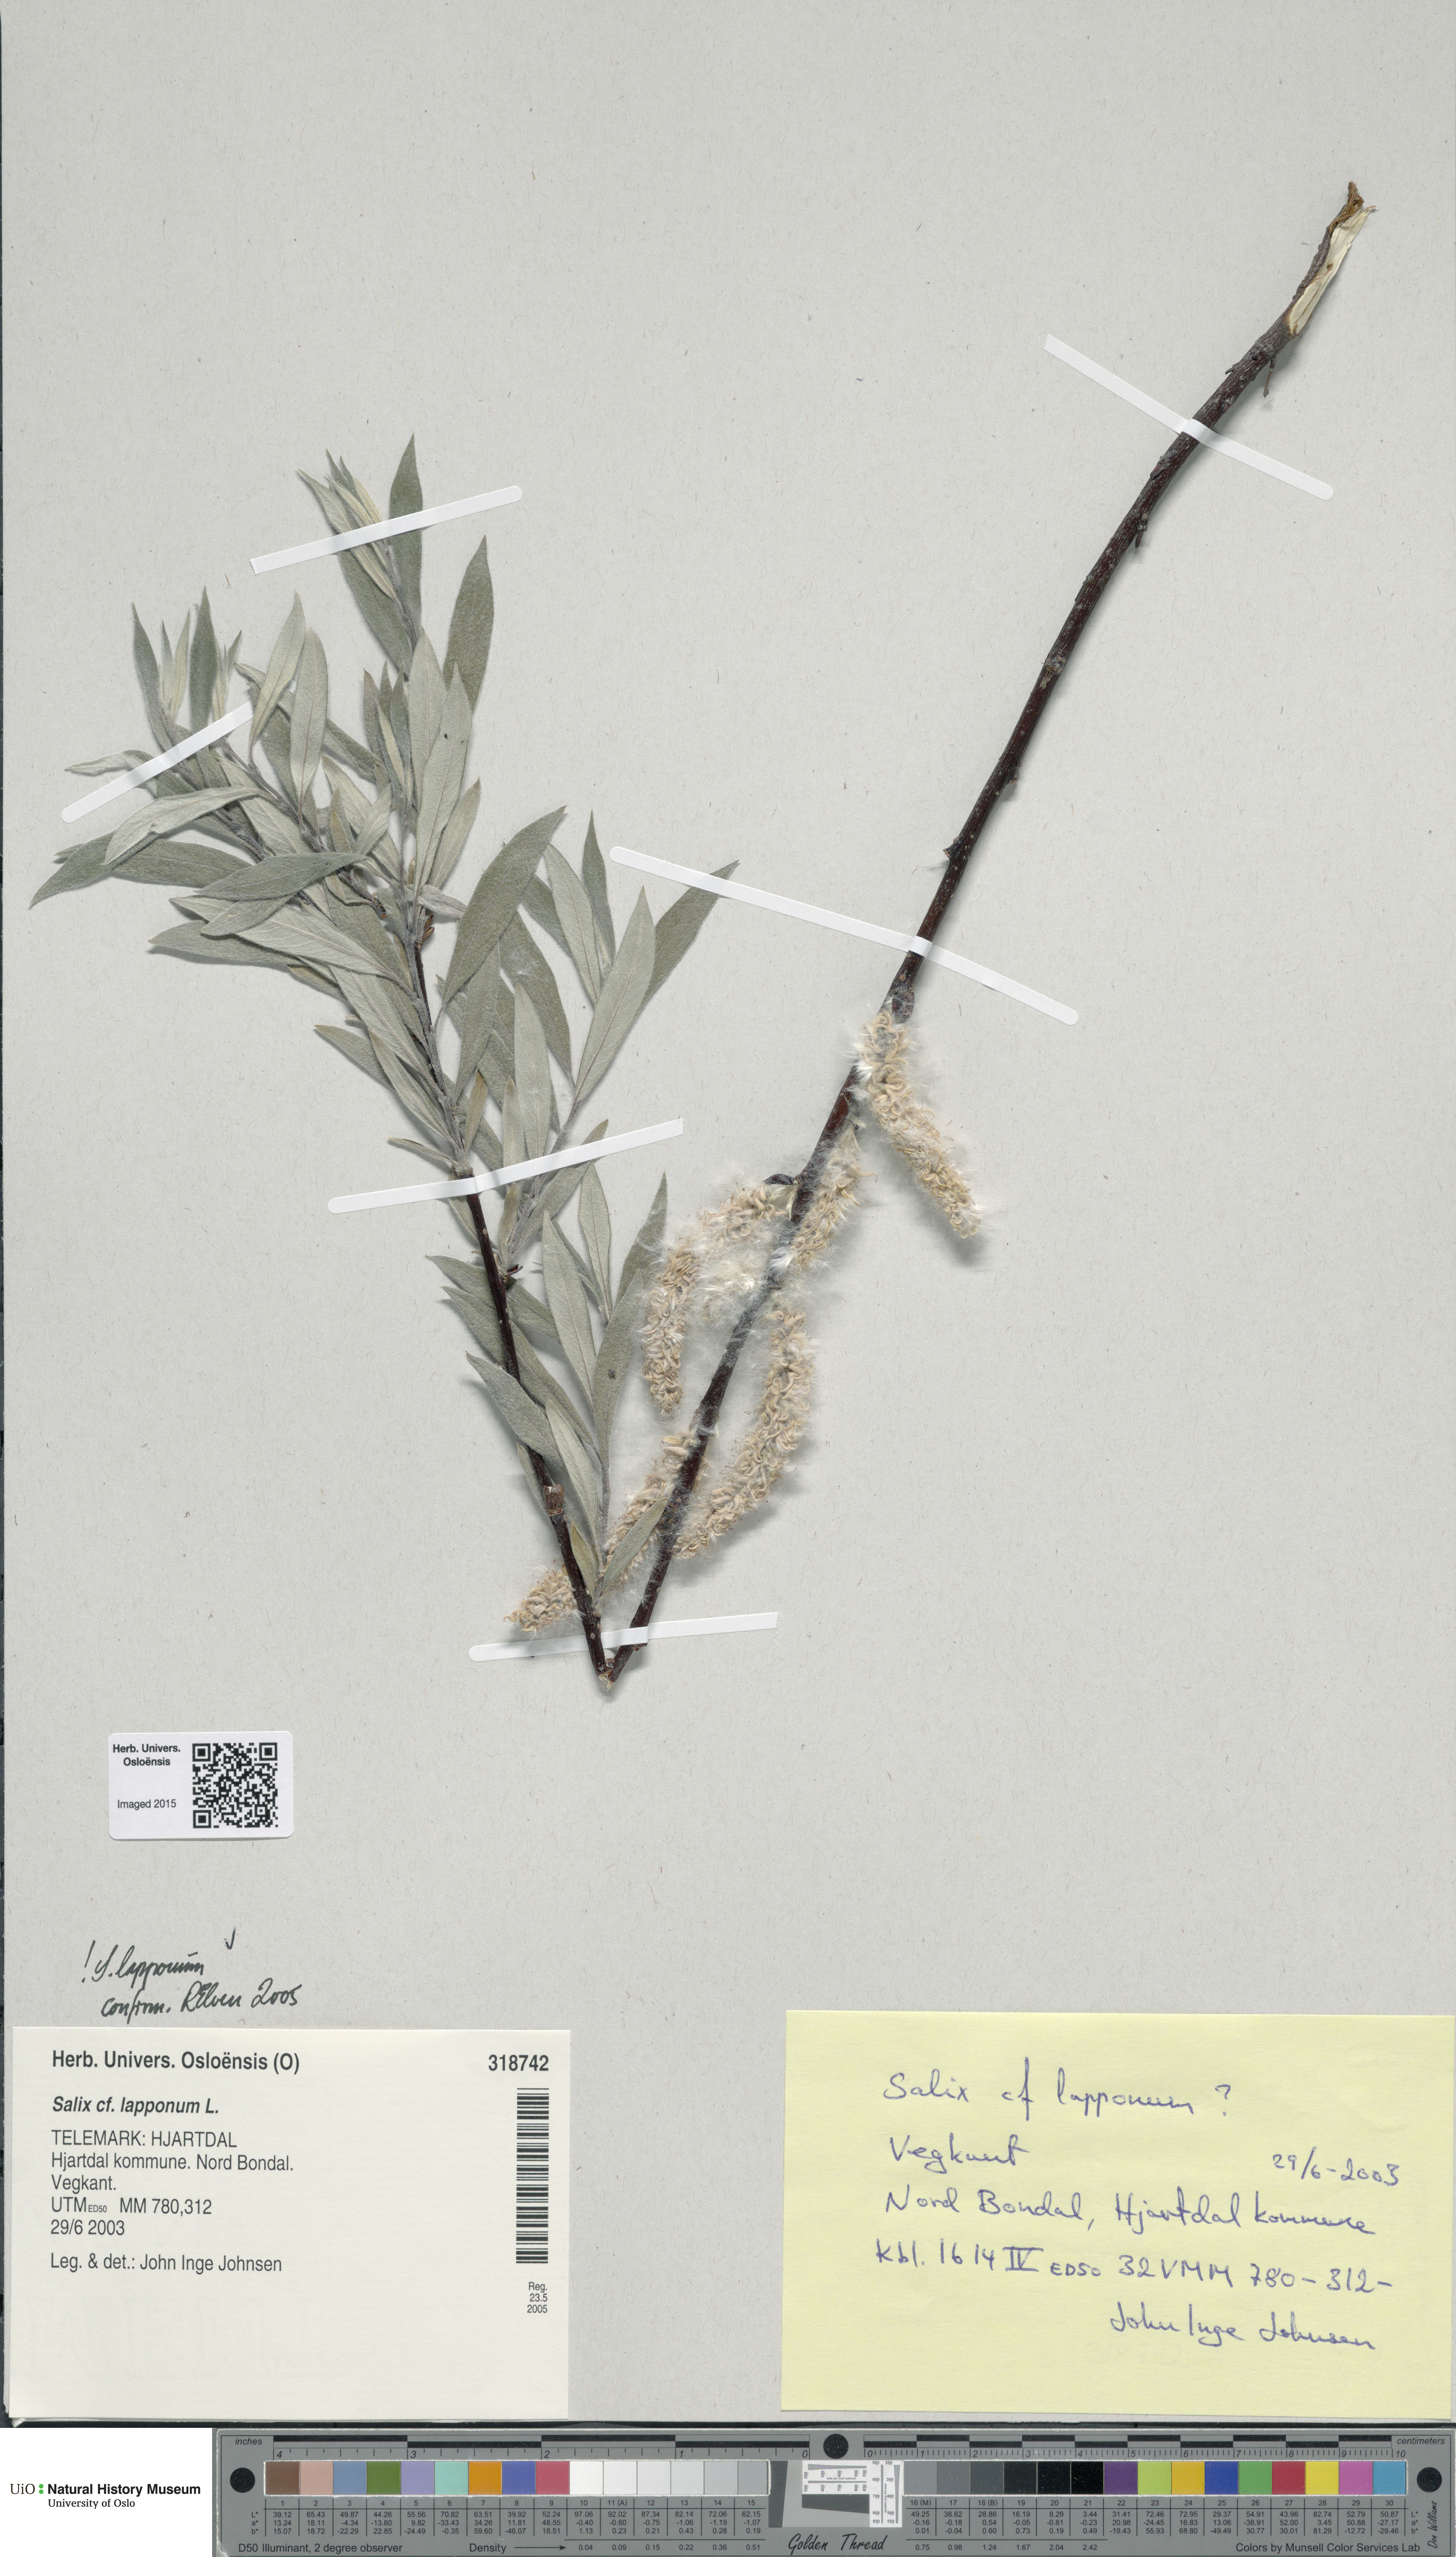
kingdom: Plantae
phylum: Tracheophyta
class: Magnoliopsida
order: Malpighiales
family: Salicaceae
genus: Salix
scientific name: Salix lapponum
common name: Downy willow
